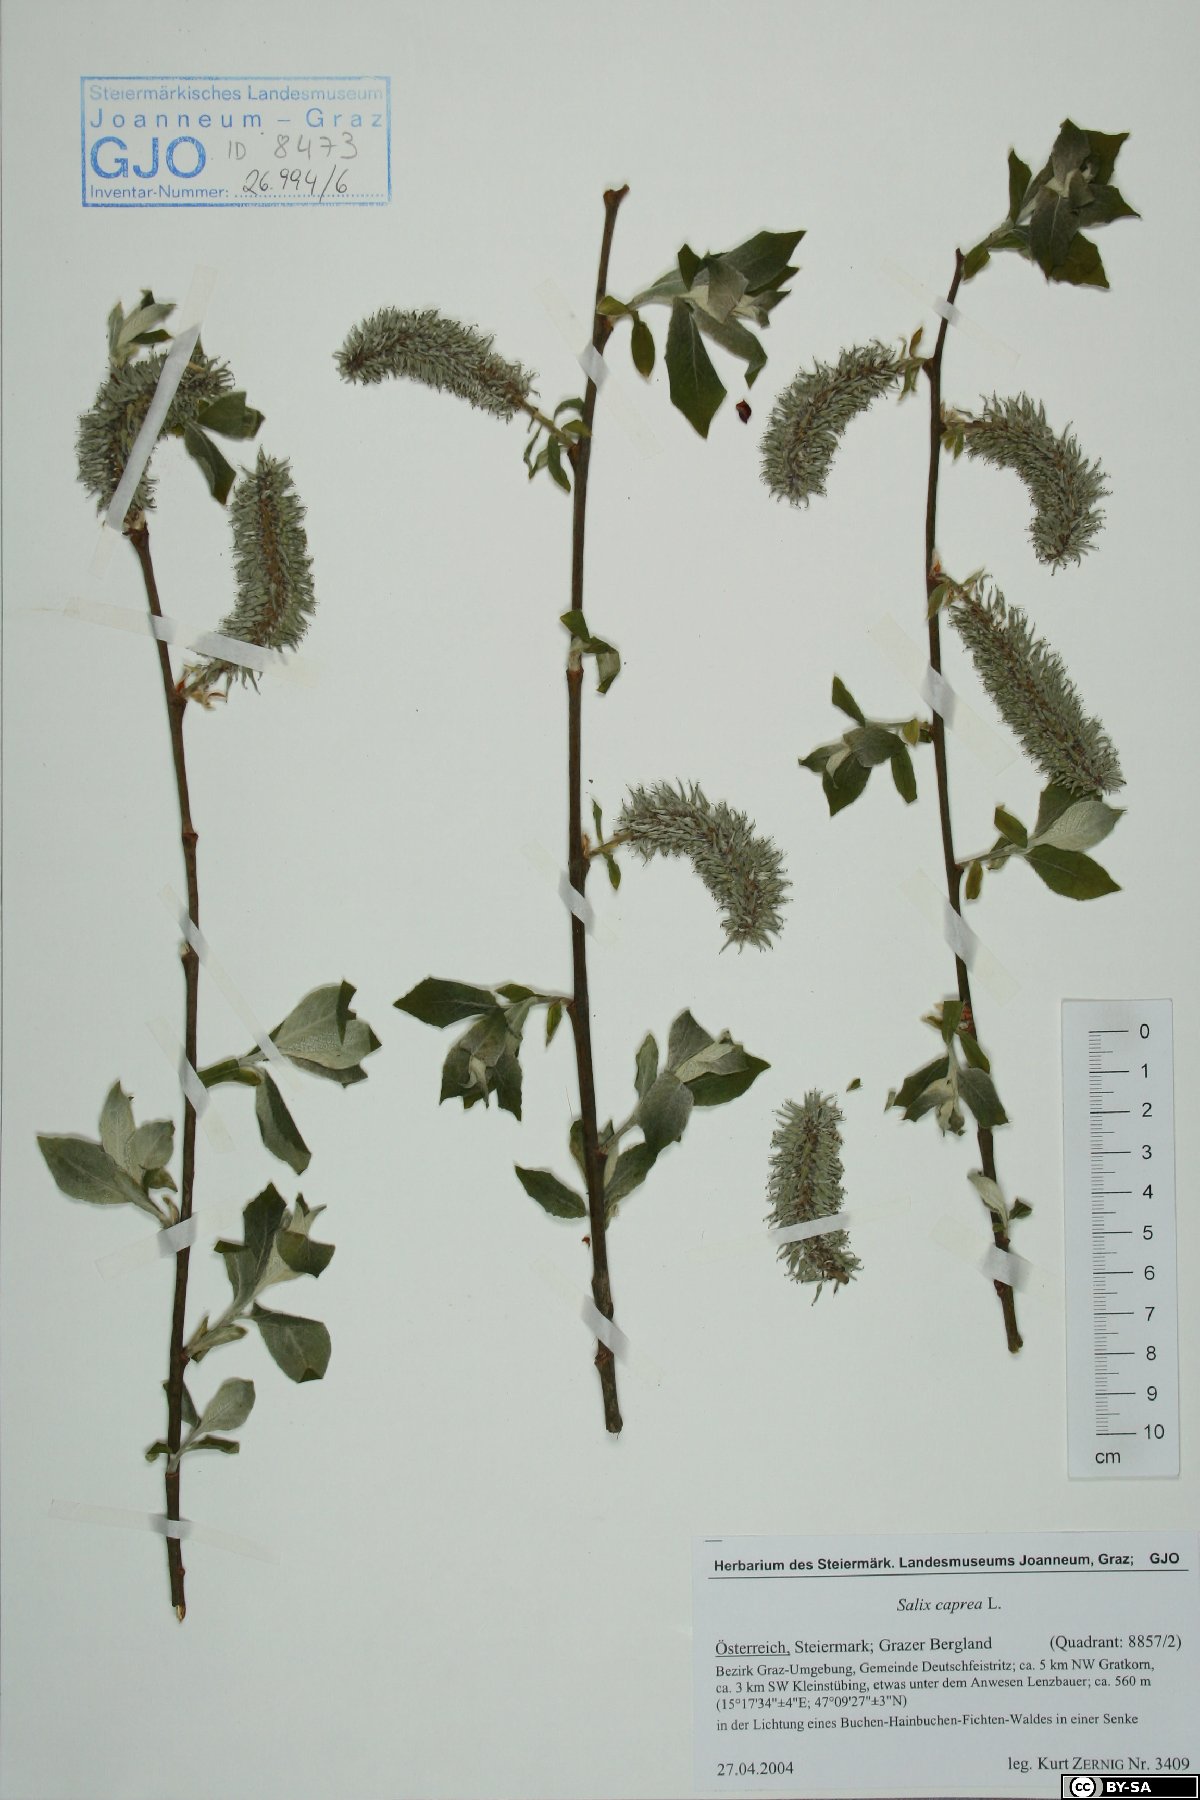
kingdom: Plantae
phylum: Tracheophyta
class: Magnoliopsida
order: Malpighiales
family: Salicaceae
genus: Salix
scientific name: Salix caprea
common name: Goat willow
